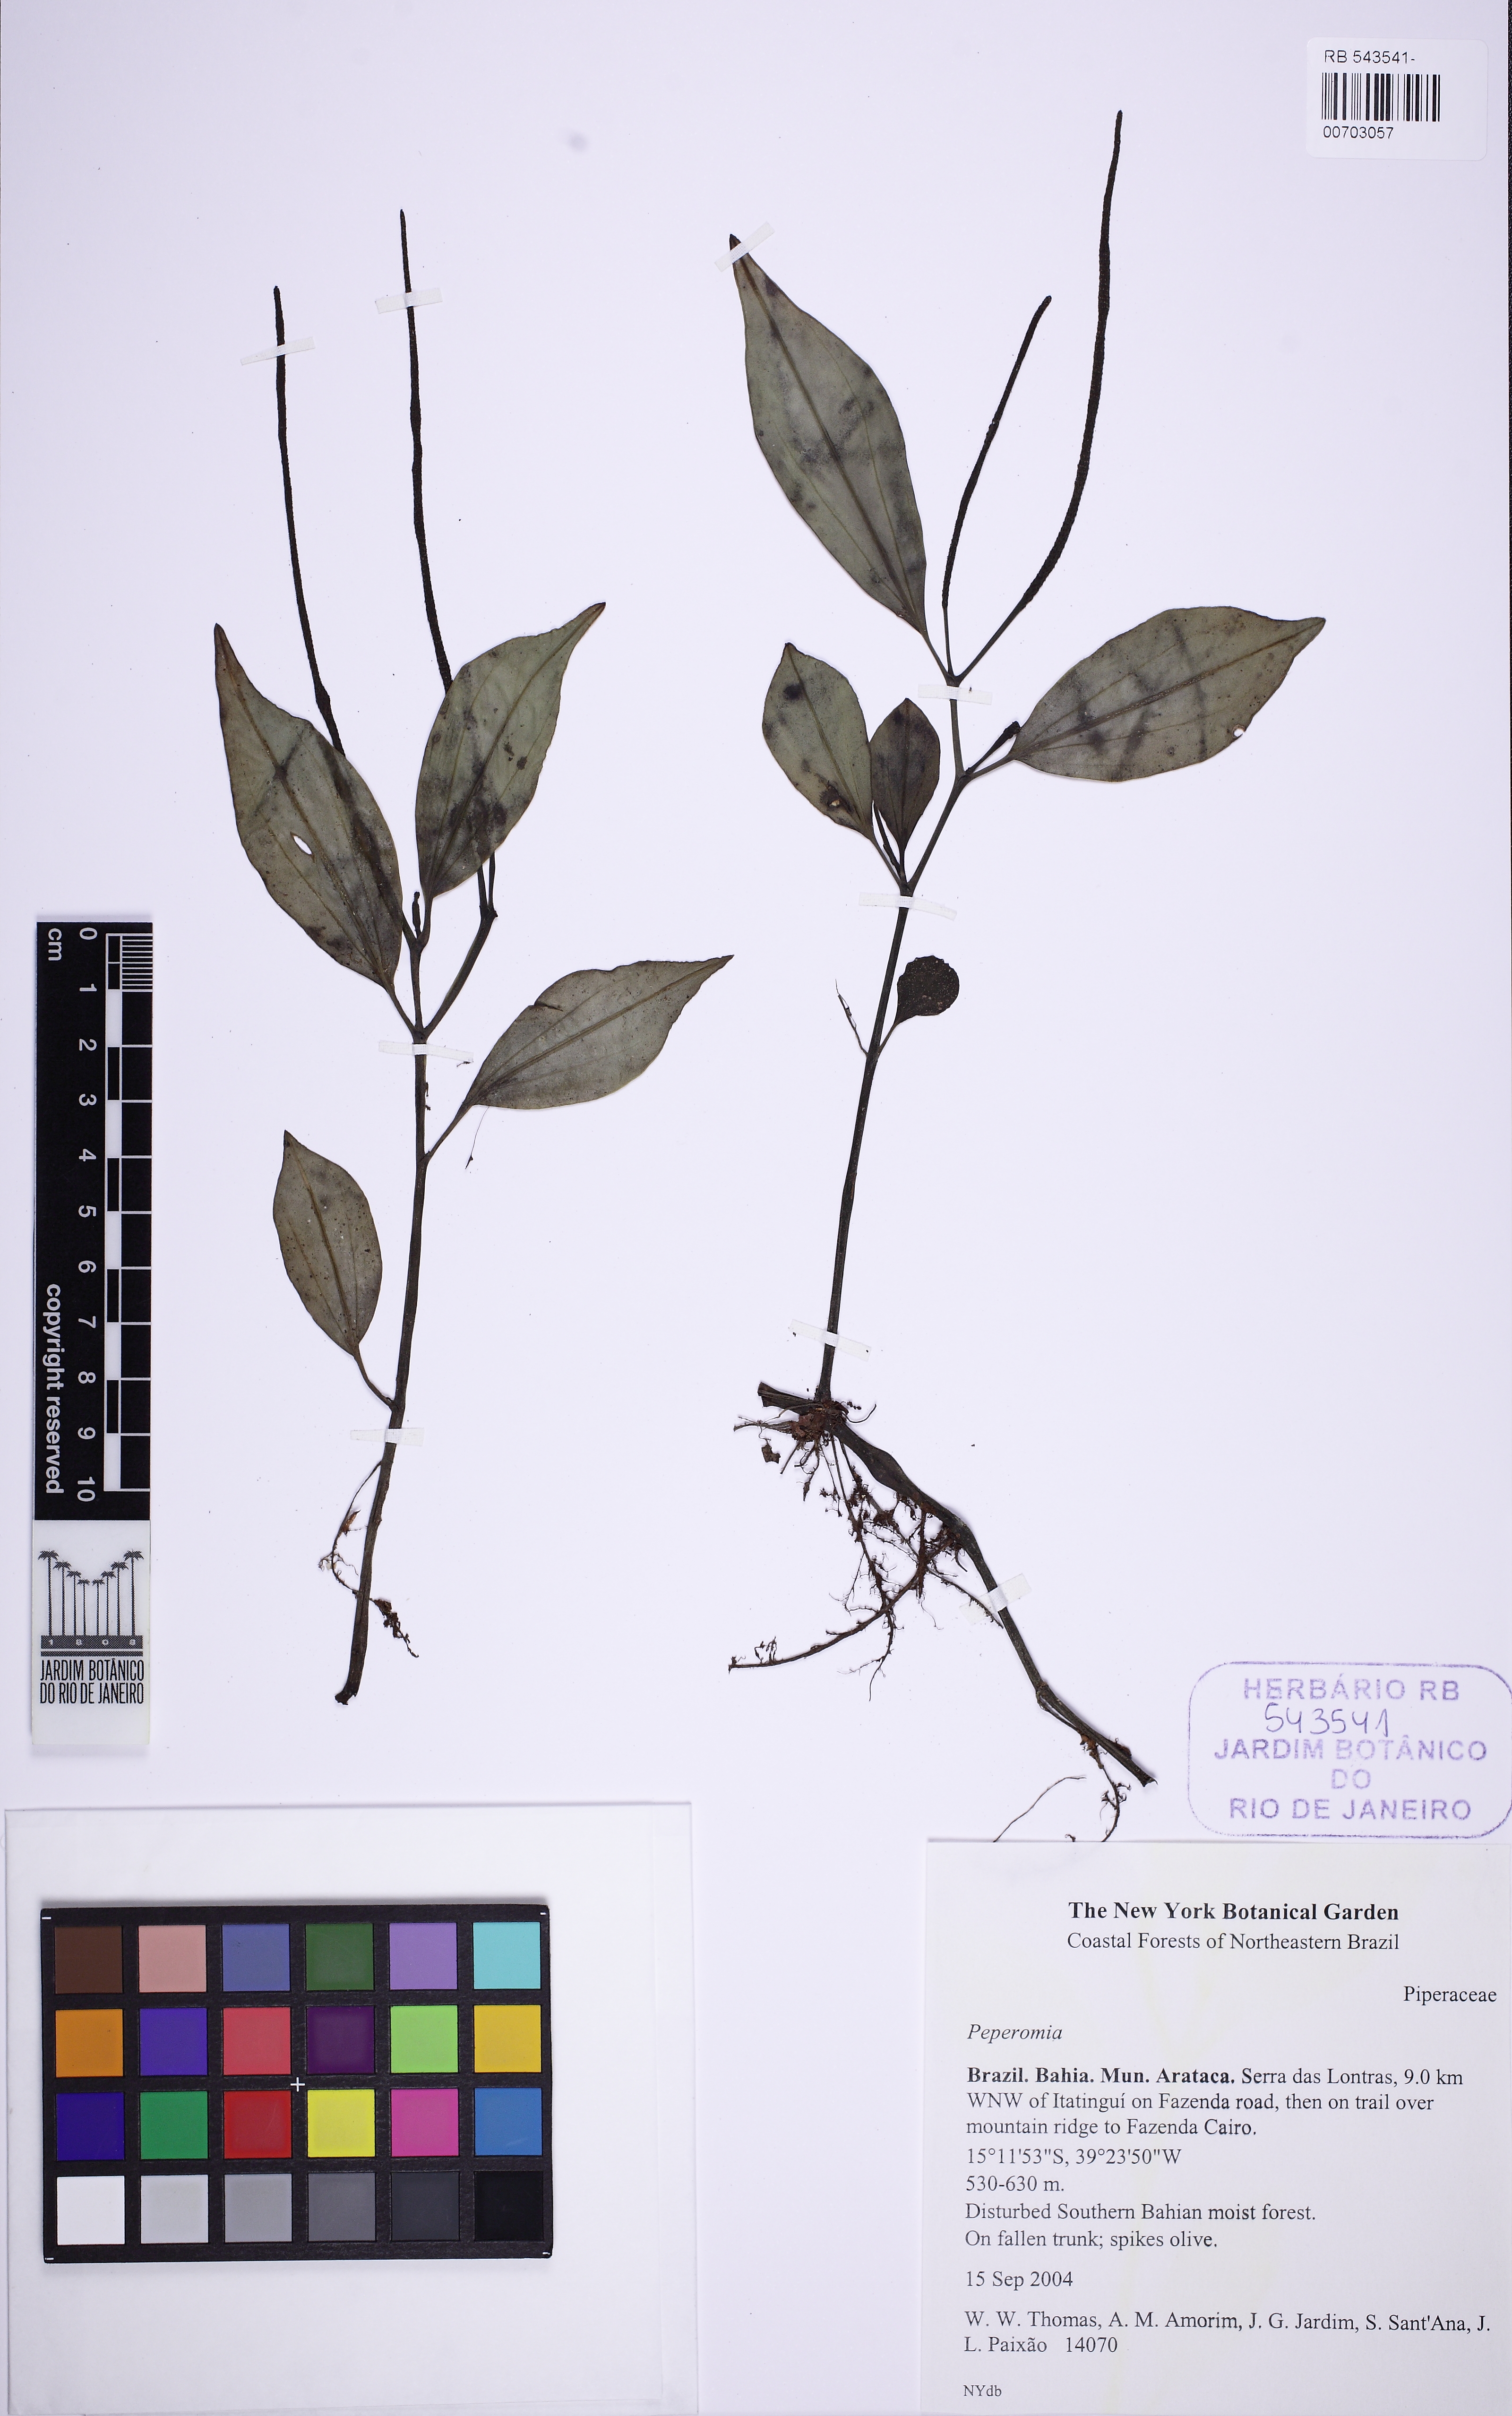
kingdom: Plantae
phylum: Tracheophyta
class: Magnoliopsida
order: Piperales
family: Piperaceae
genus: Peperomia
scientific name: Peperomia alata
